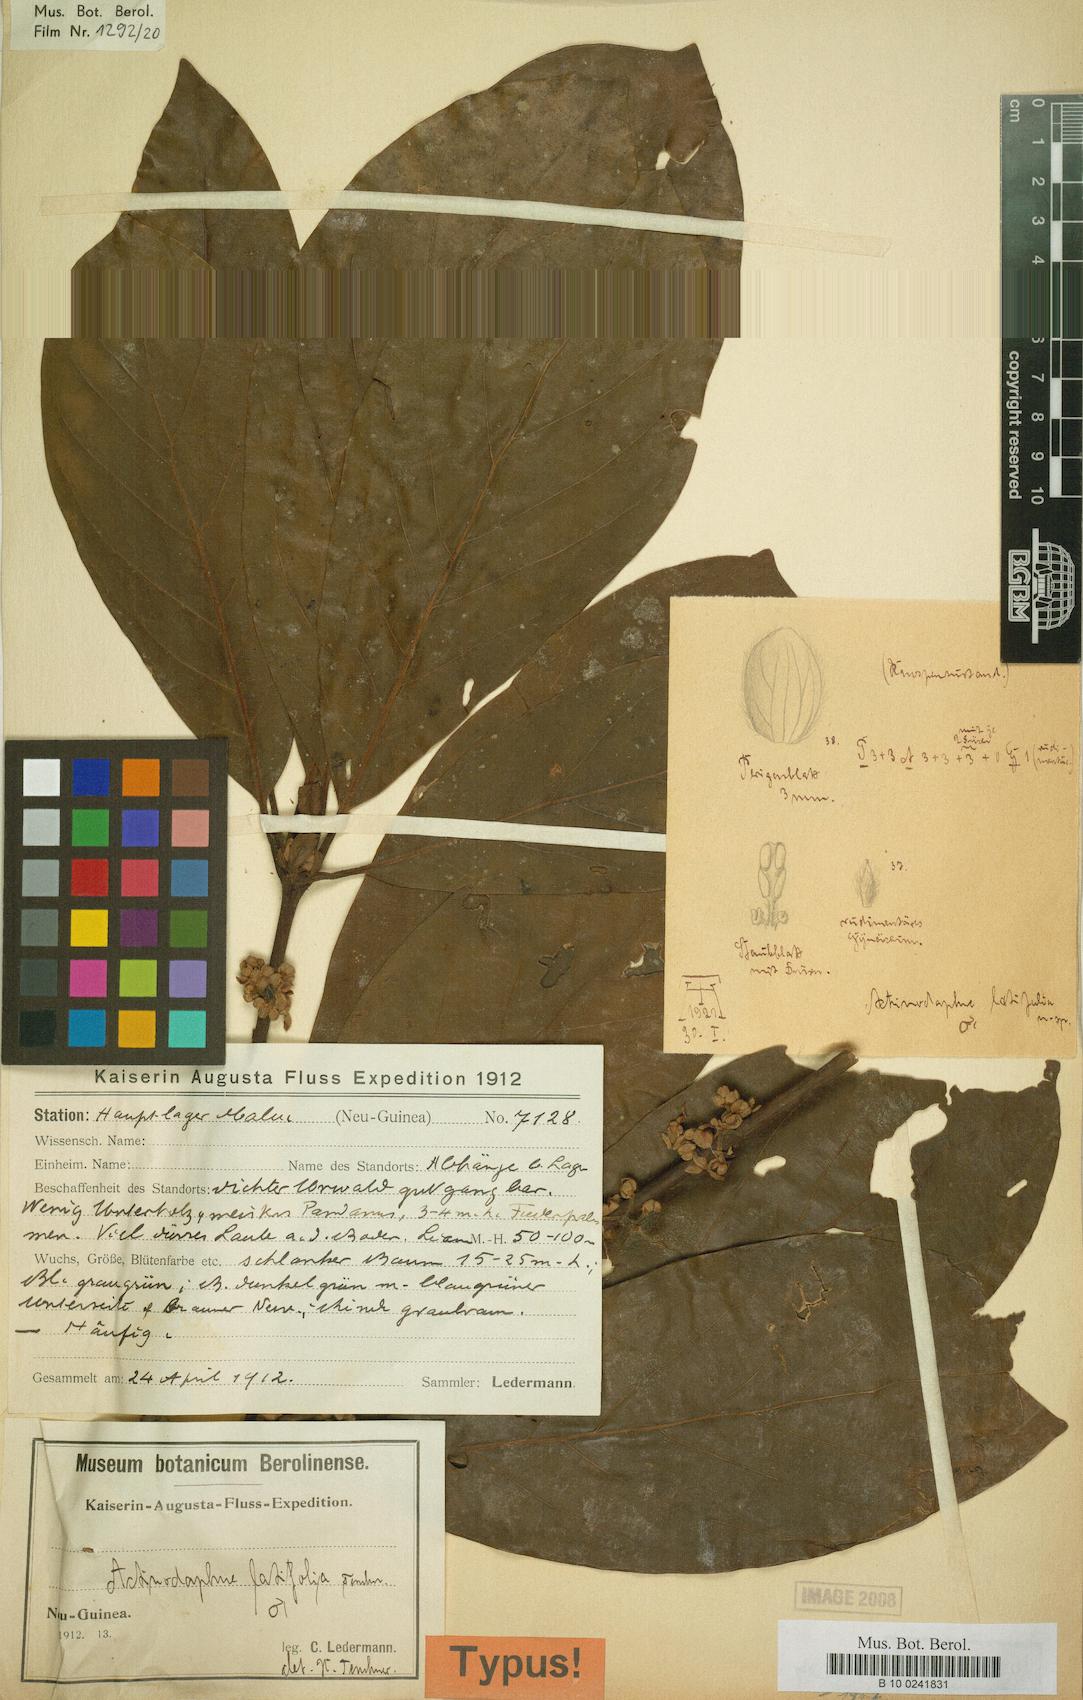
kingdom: Plantae
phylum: Tracheophyta
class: Magnoliopsida
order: Laurales
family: Lauraceae
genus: Actinodaphne
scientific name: Actinodaphne nitida
